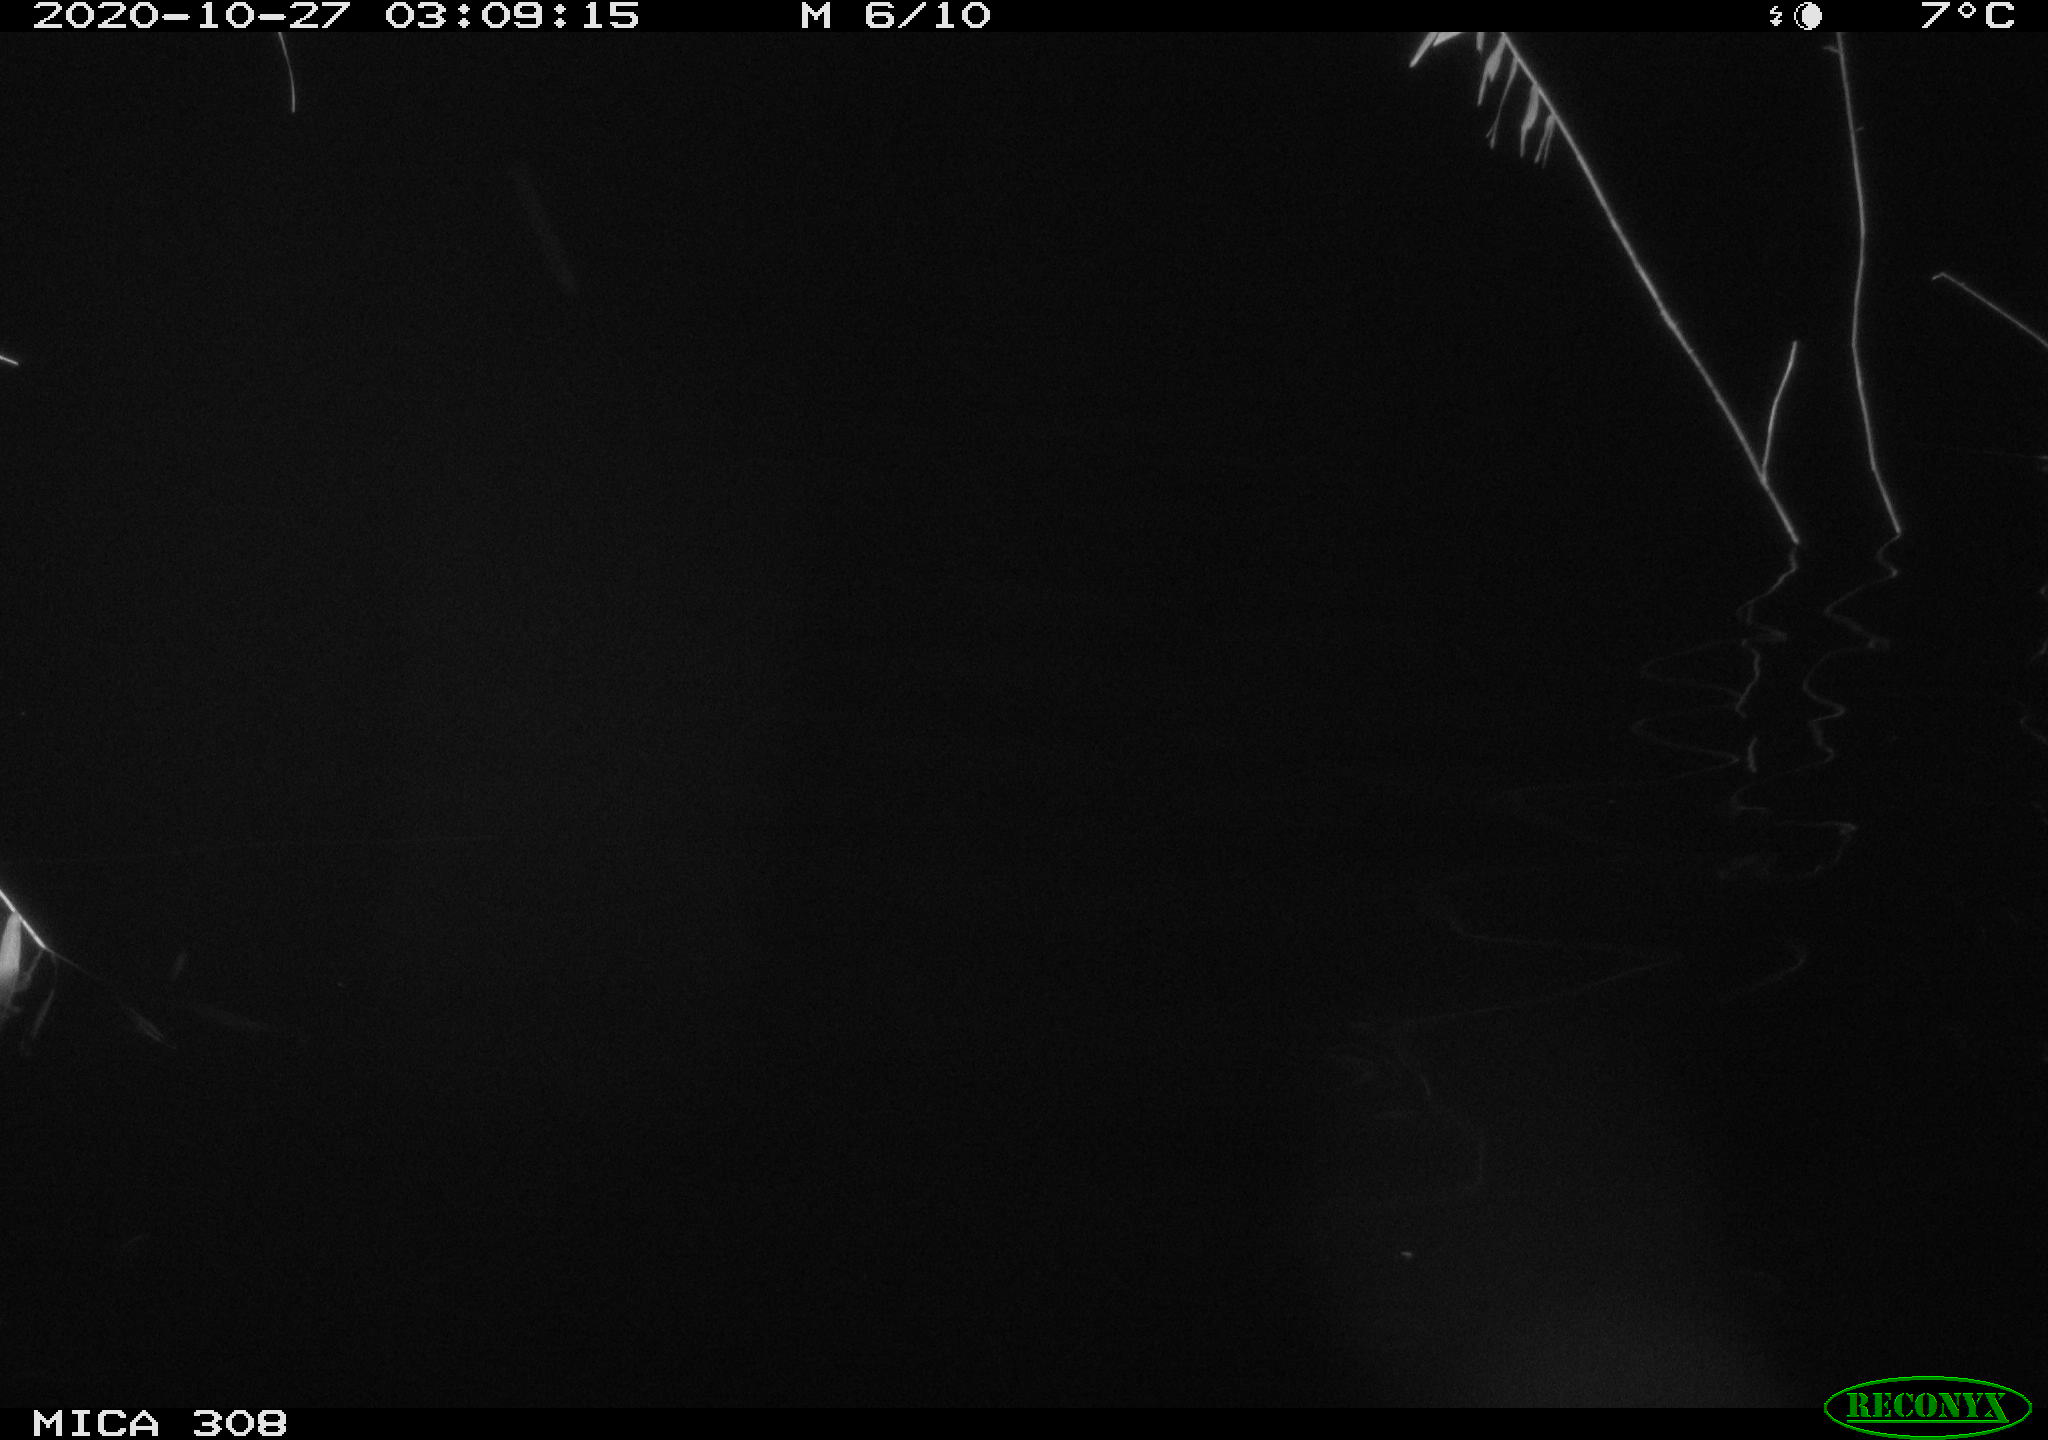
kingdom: Animalia
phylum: Chordata
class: Mammalia
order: Rodentia
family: Muridae
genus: Rattus
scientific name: Rattus norvegicus
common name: Brown rat
